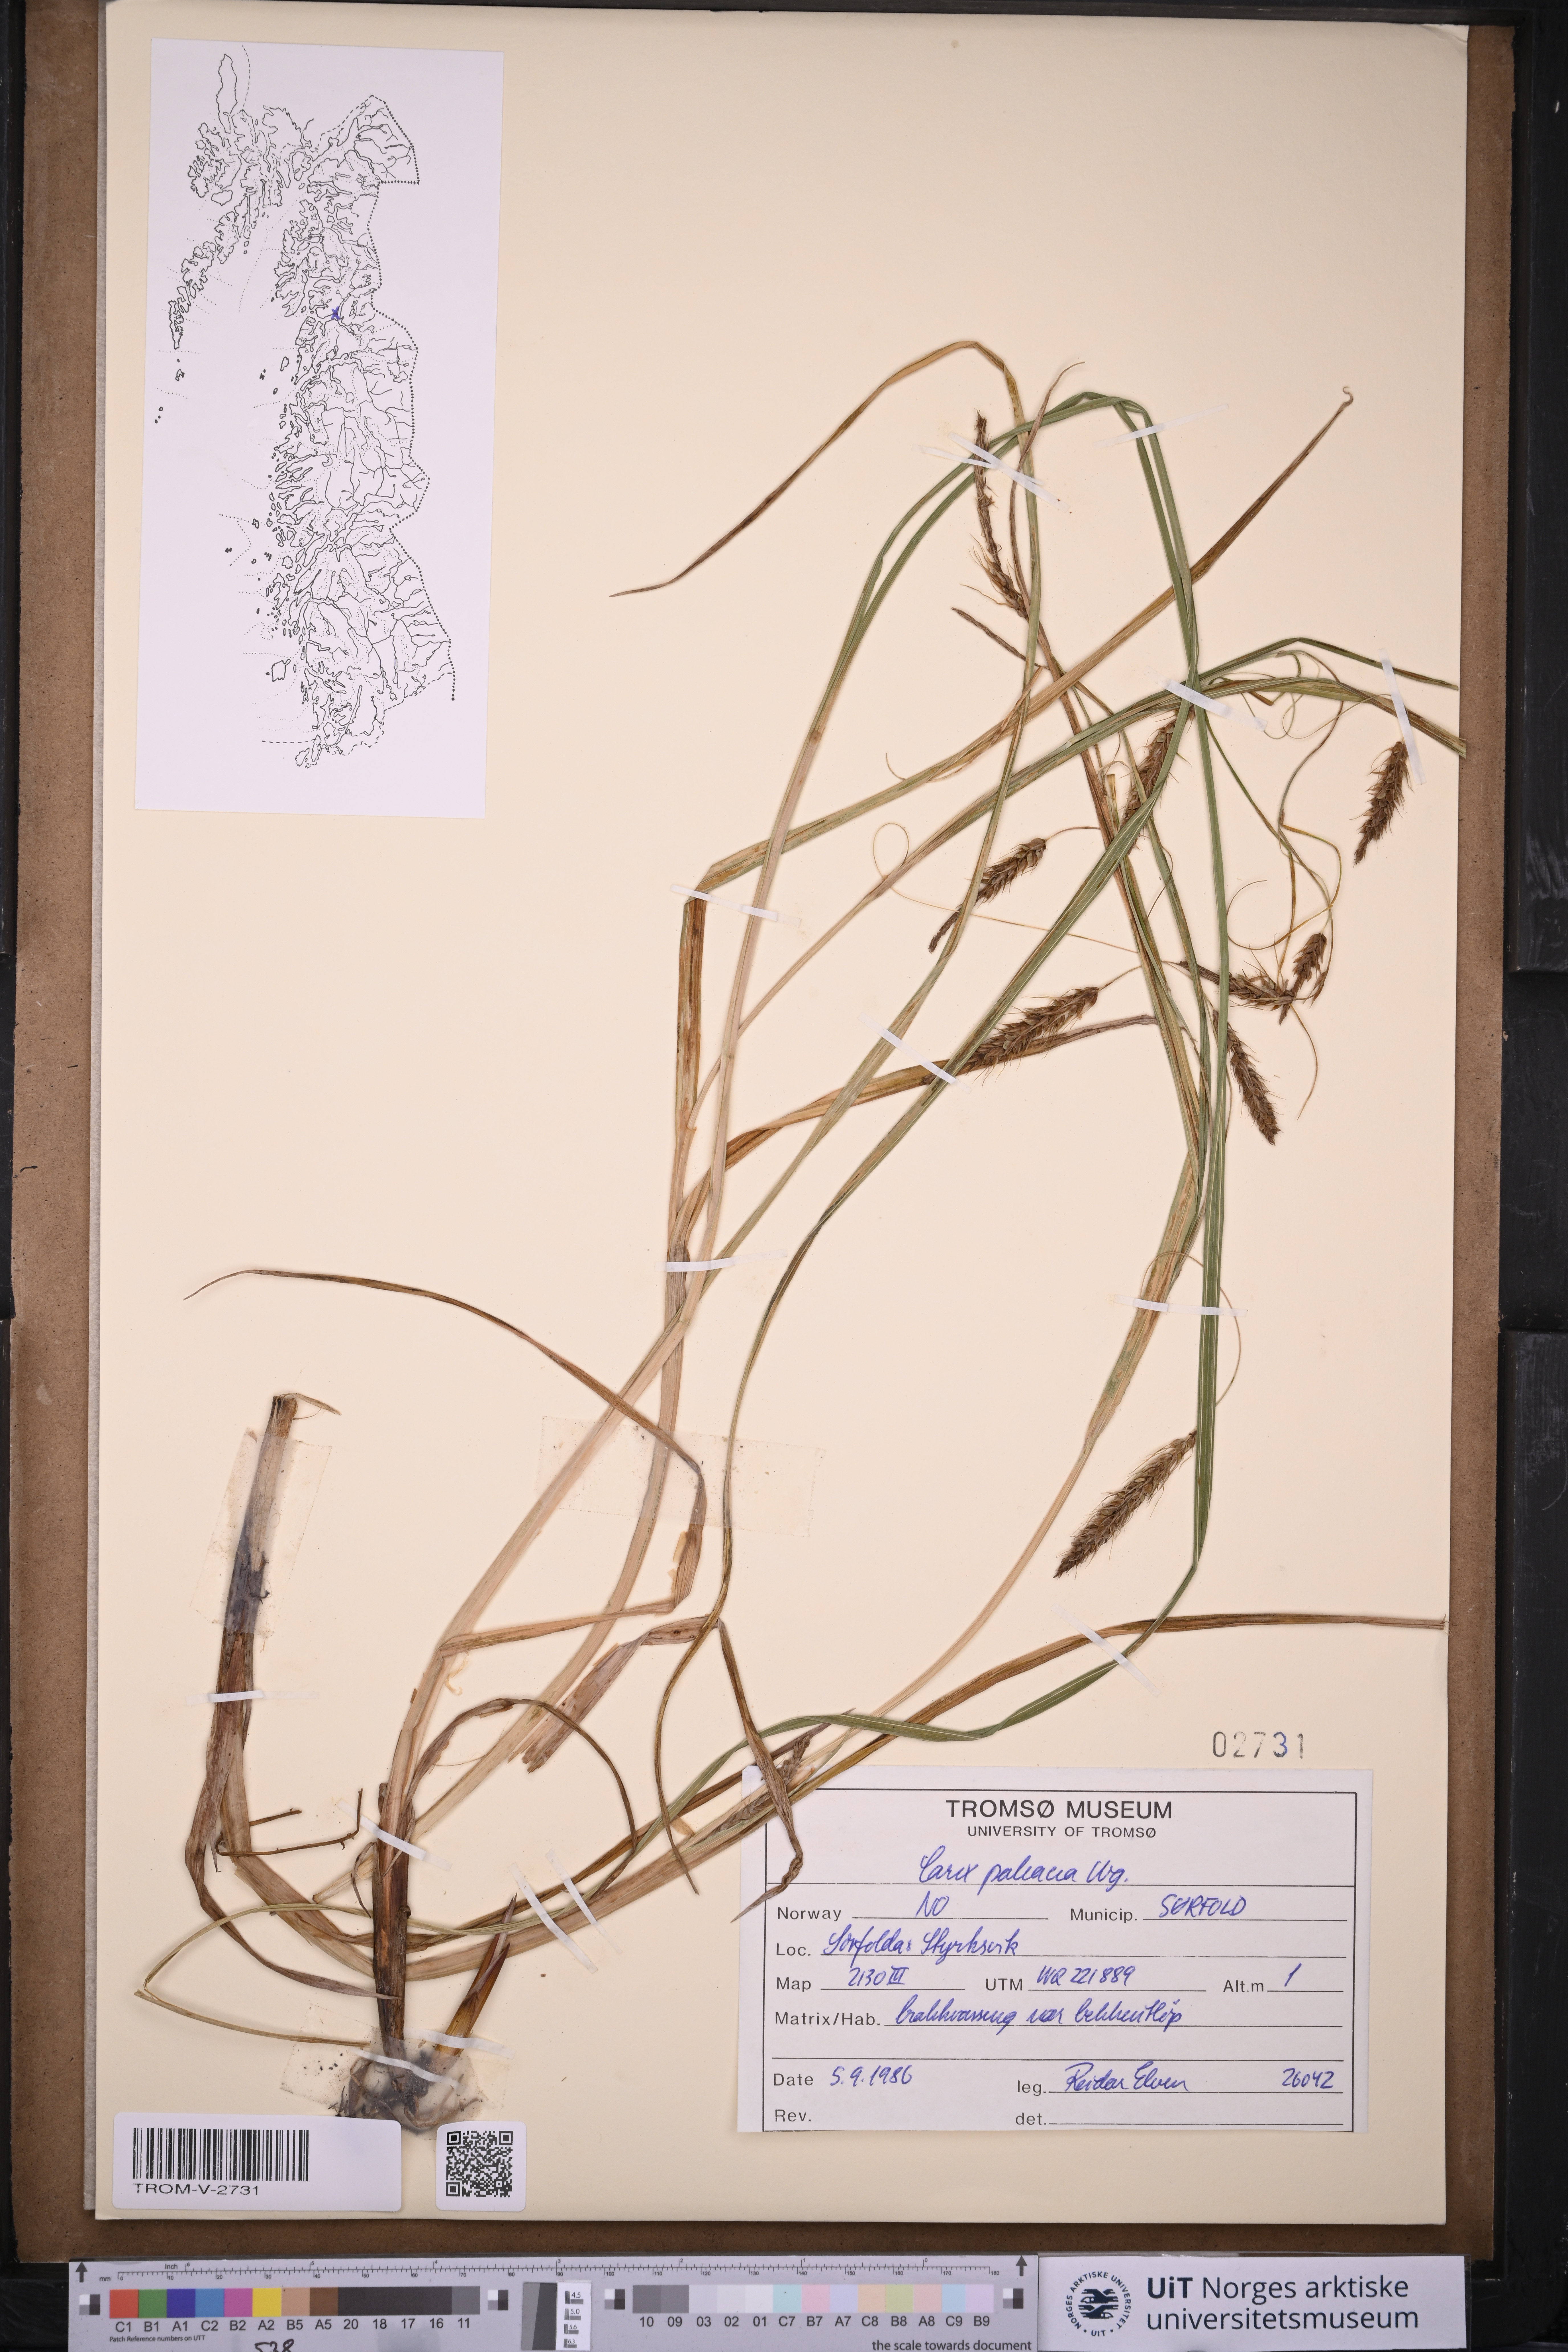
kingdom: Plantae
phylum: Tracheophyta
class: Liliopsida
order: Poales
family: Cyperaceae
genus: Carex
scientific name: Carex paleacea
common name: Chaffy sedge
